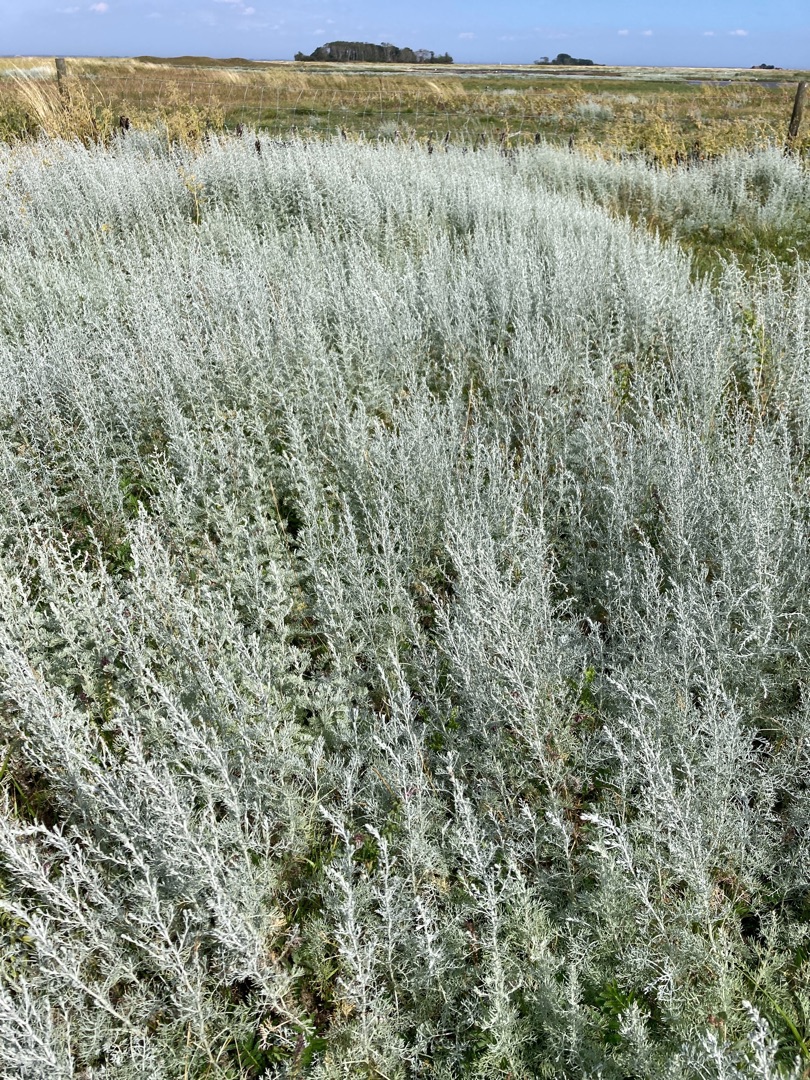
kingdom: Plantae
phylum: Tracheophyta
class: Magnoliopsida
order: Asterales
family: Asteraceae
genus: Artemisia
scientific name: Artemisia maritima
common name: Strandmalurt
